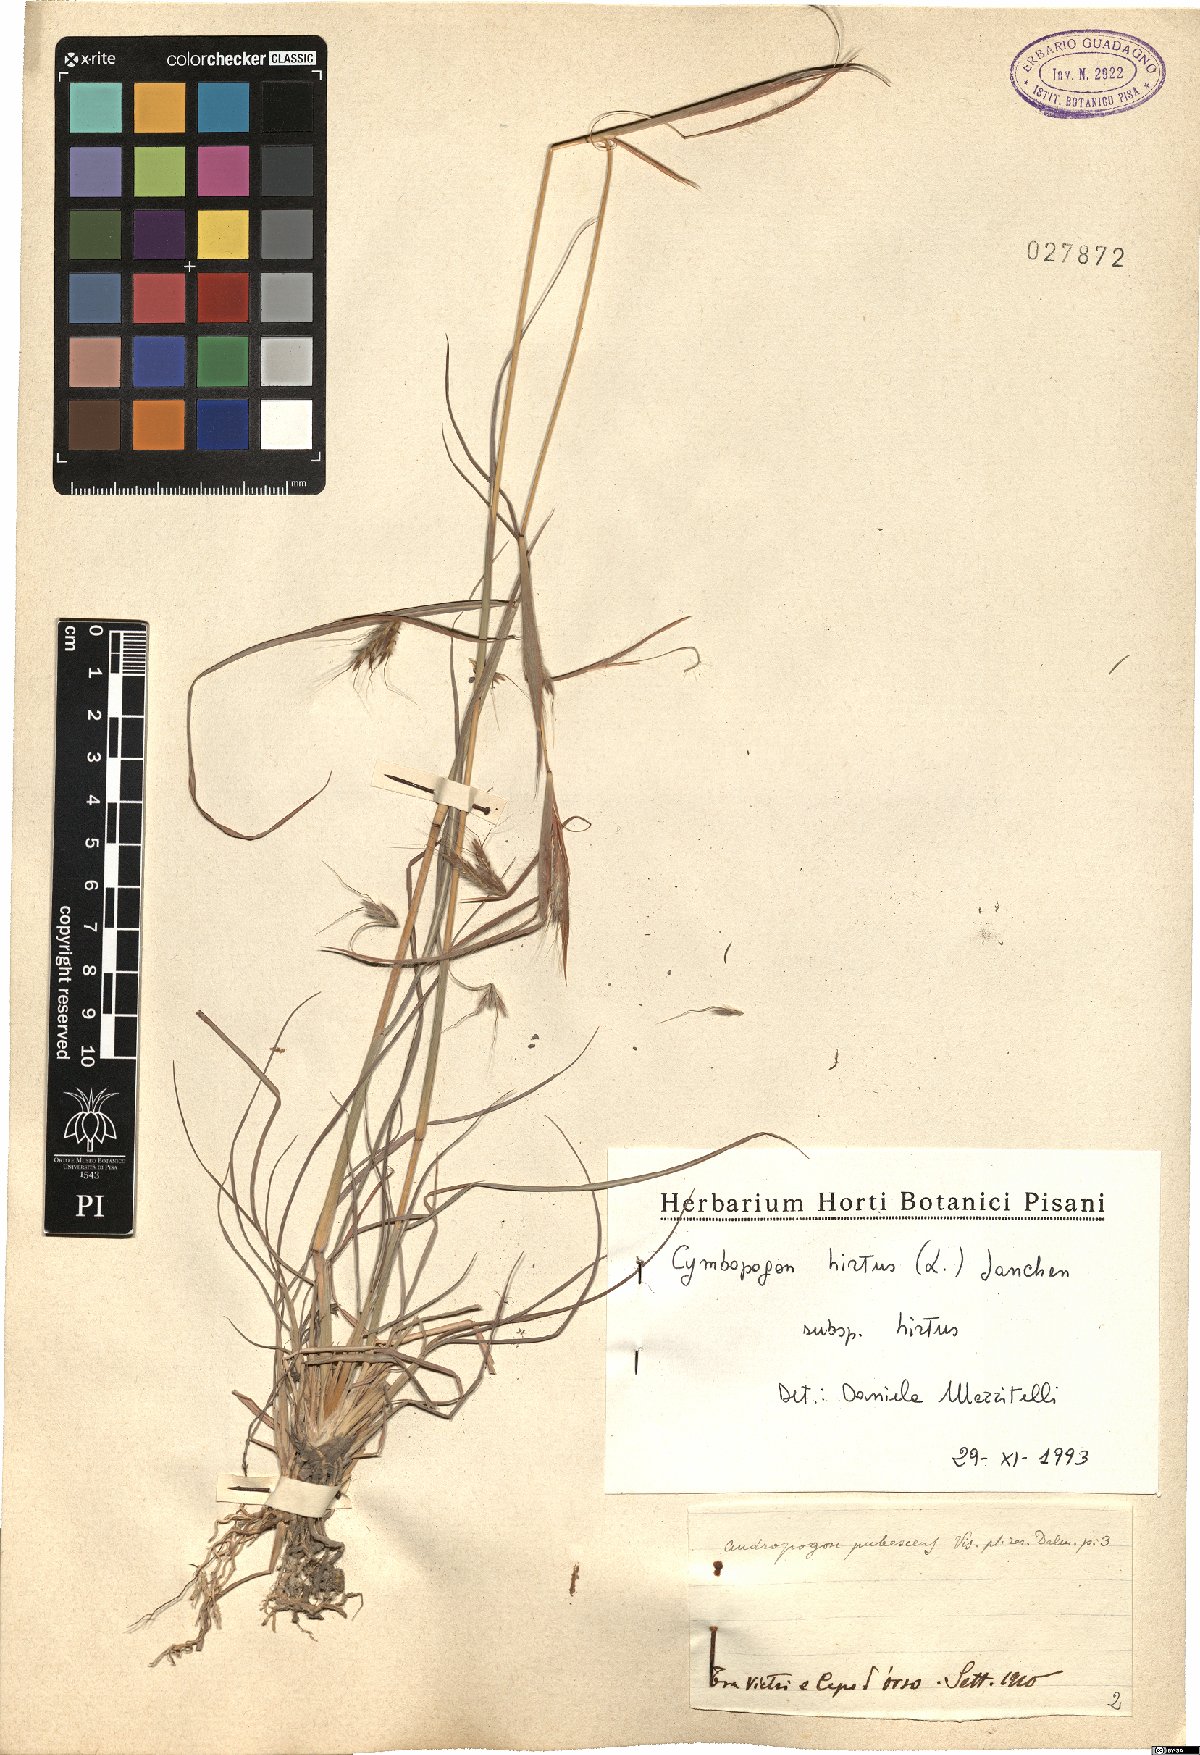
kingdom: Plantae
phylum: Tracheophyta
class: Liliopsida
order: Poales
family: Poaceae
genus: Cymbopogon
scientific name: Cymbopogon hirtus
